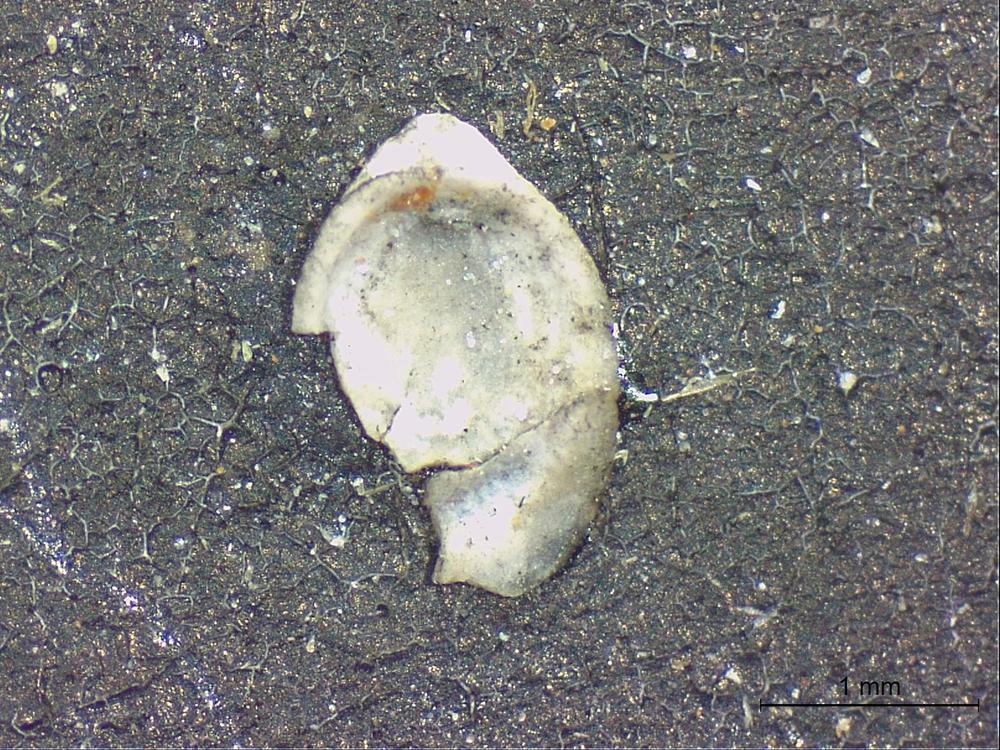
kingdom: Animalia
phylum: Brachiopoda
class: Craniata
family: Craniopsidae
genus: Craniops
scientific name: Craniops
